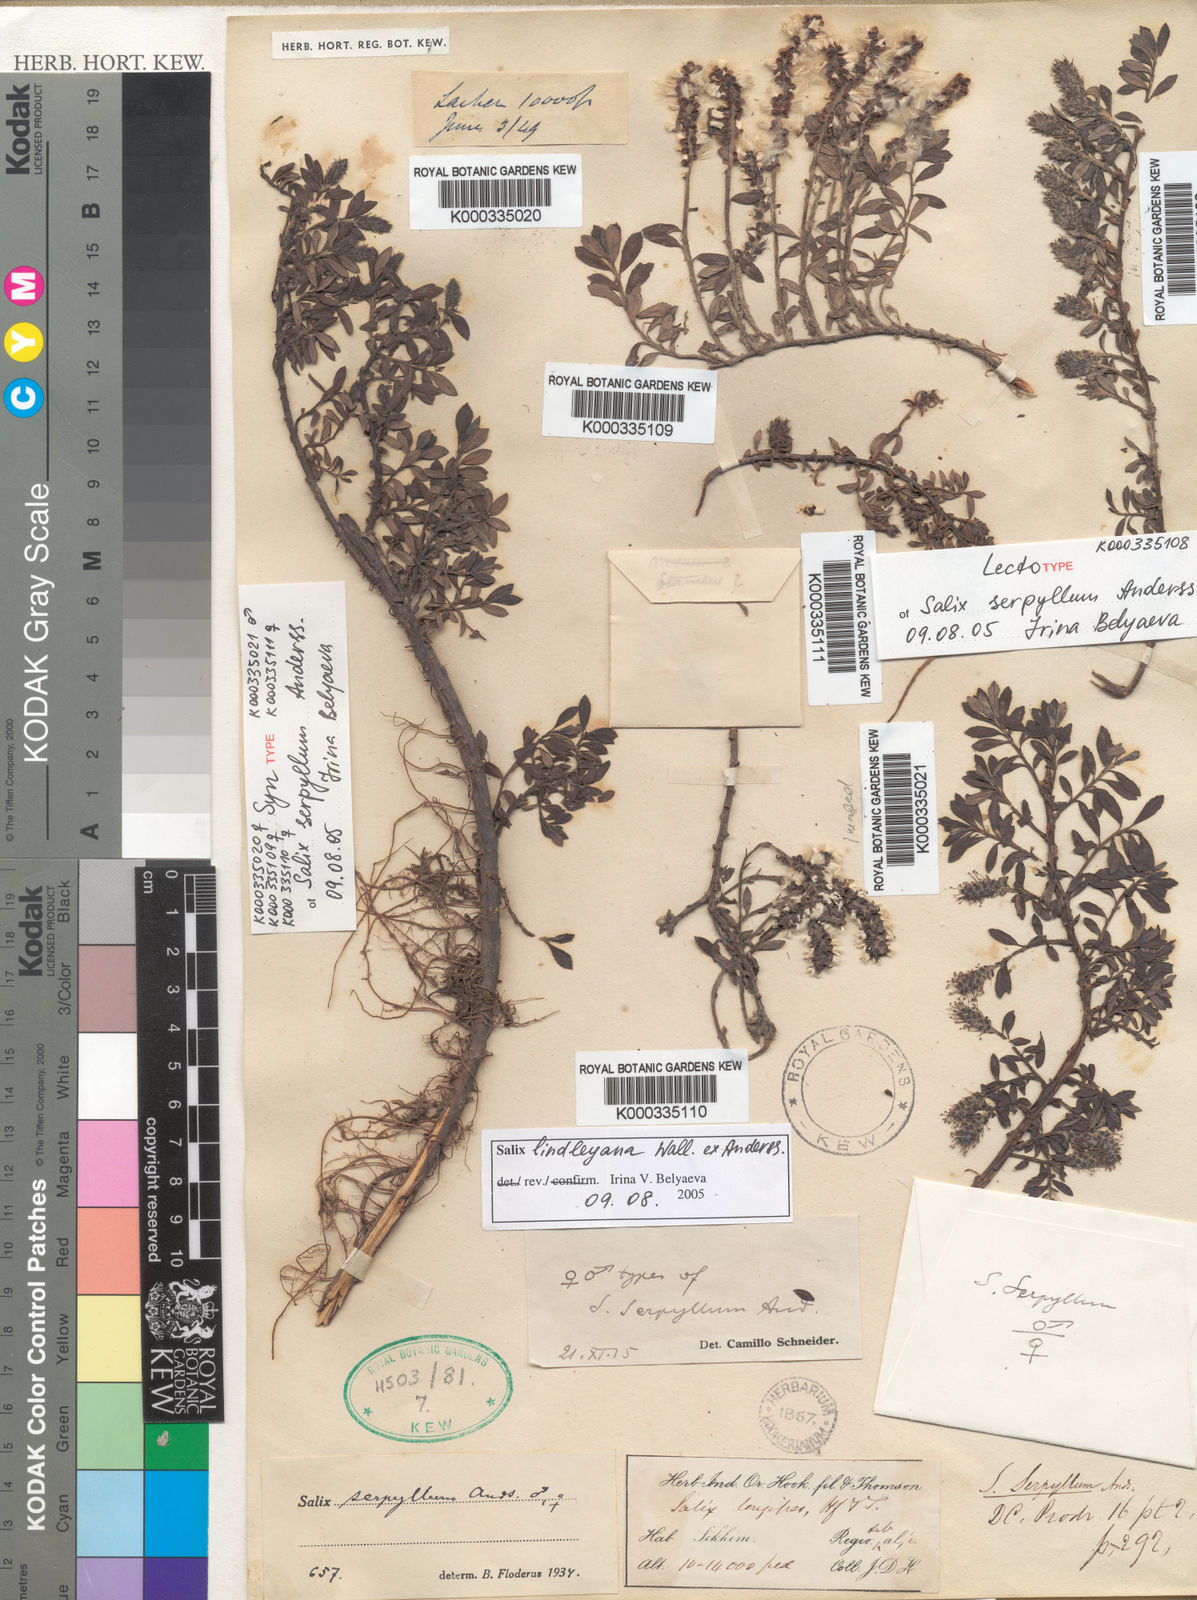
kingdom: Plantae
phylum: Tracheophyta
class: Magnoliopsida
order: Malpighiales
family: Salicaceae
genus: Salix
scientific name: Salix fruticulosa
